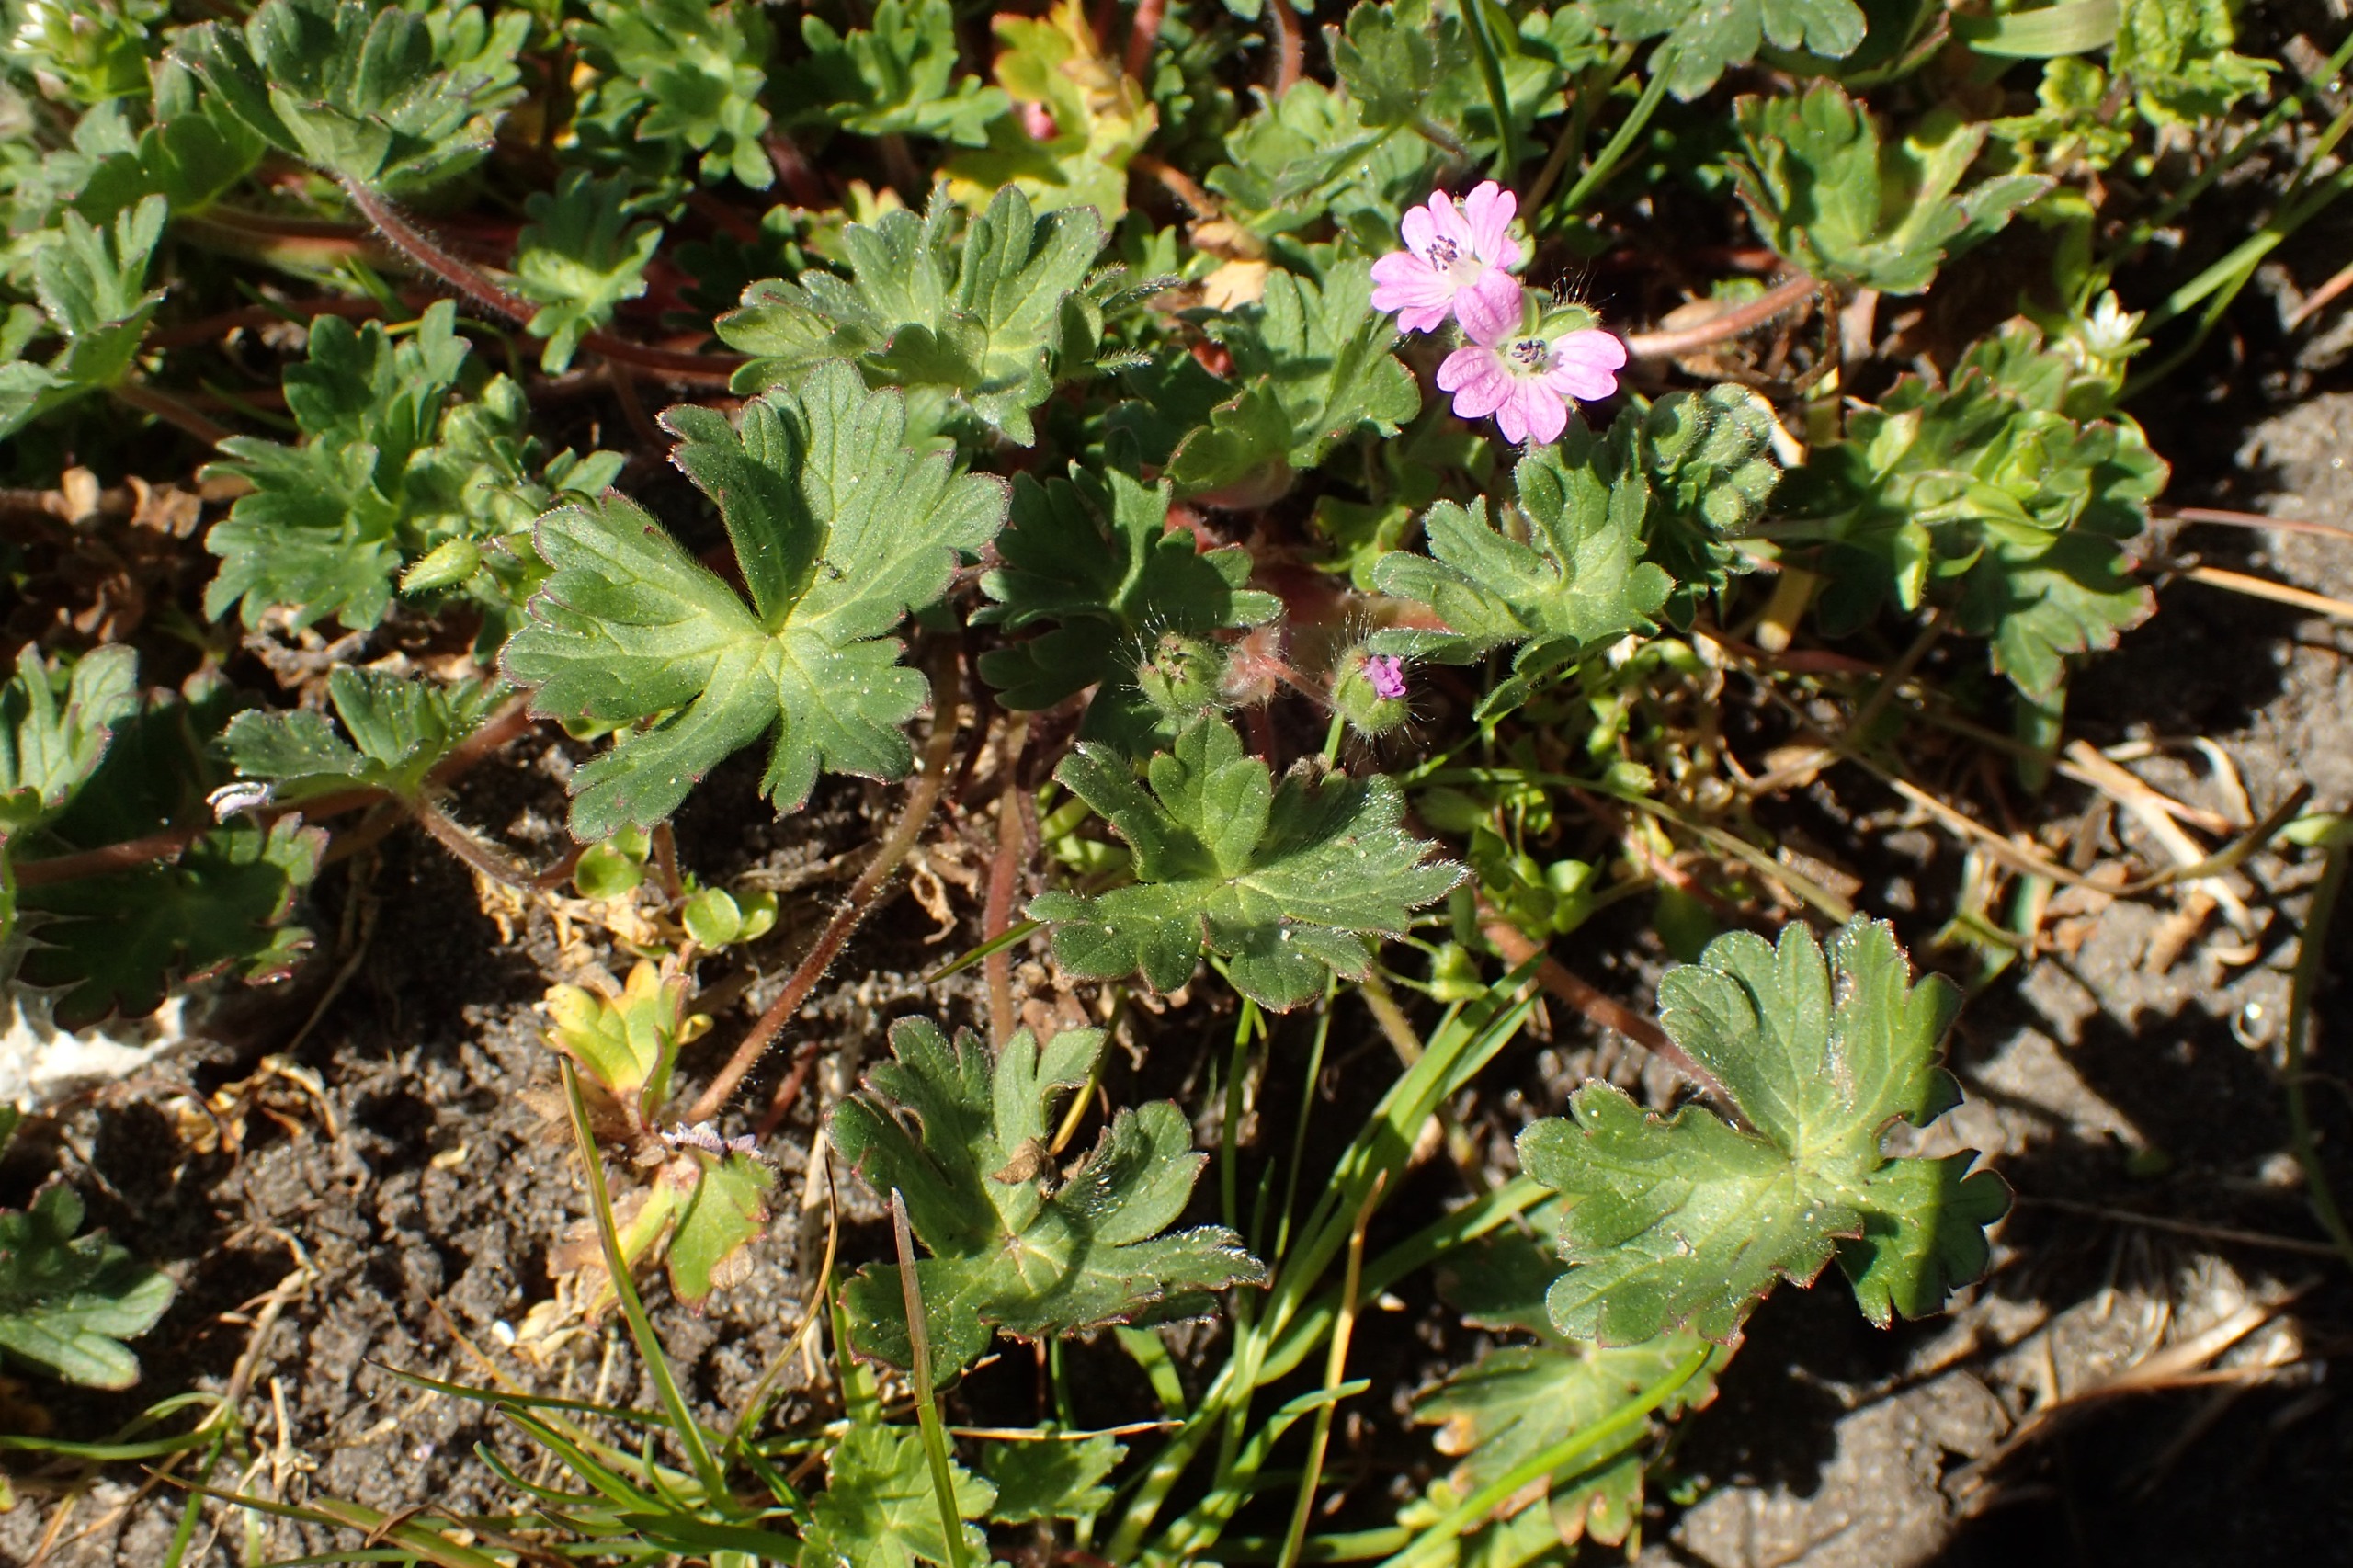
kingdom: Plantae
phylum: Tracheophyta
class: Magnoliopsida
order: Geraniales
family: Geraniaceae
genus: Geranium
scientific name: Geranium molle
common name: Blød storkenæb
